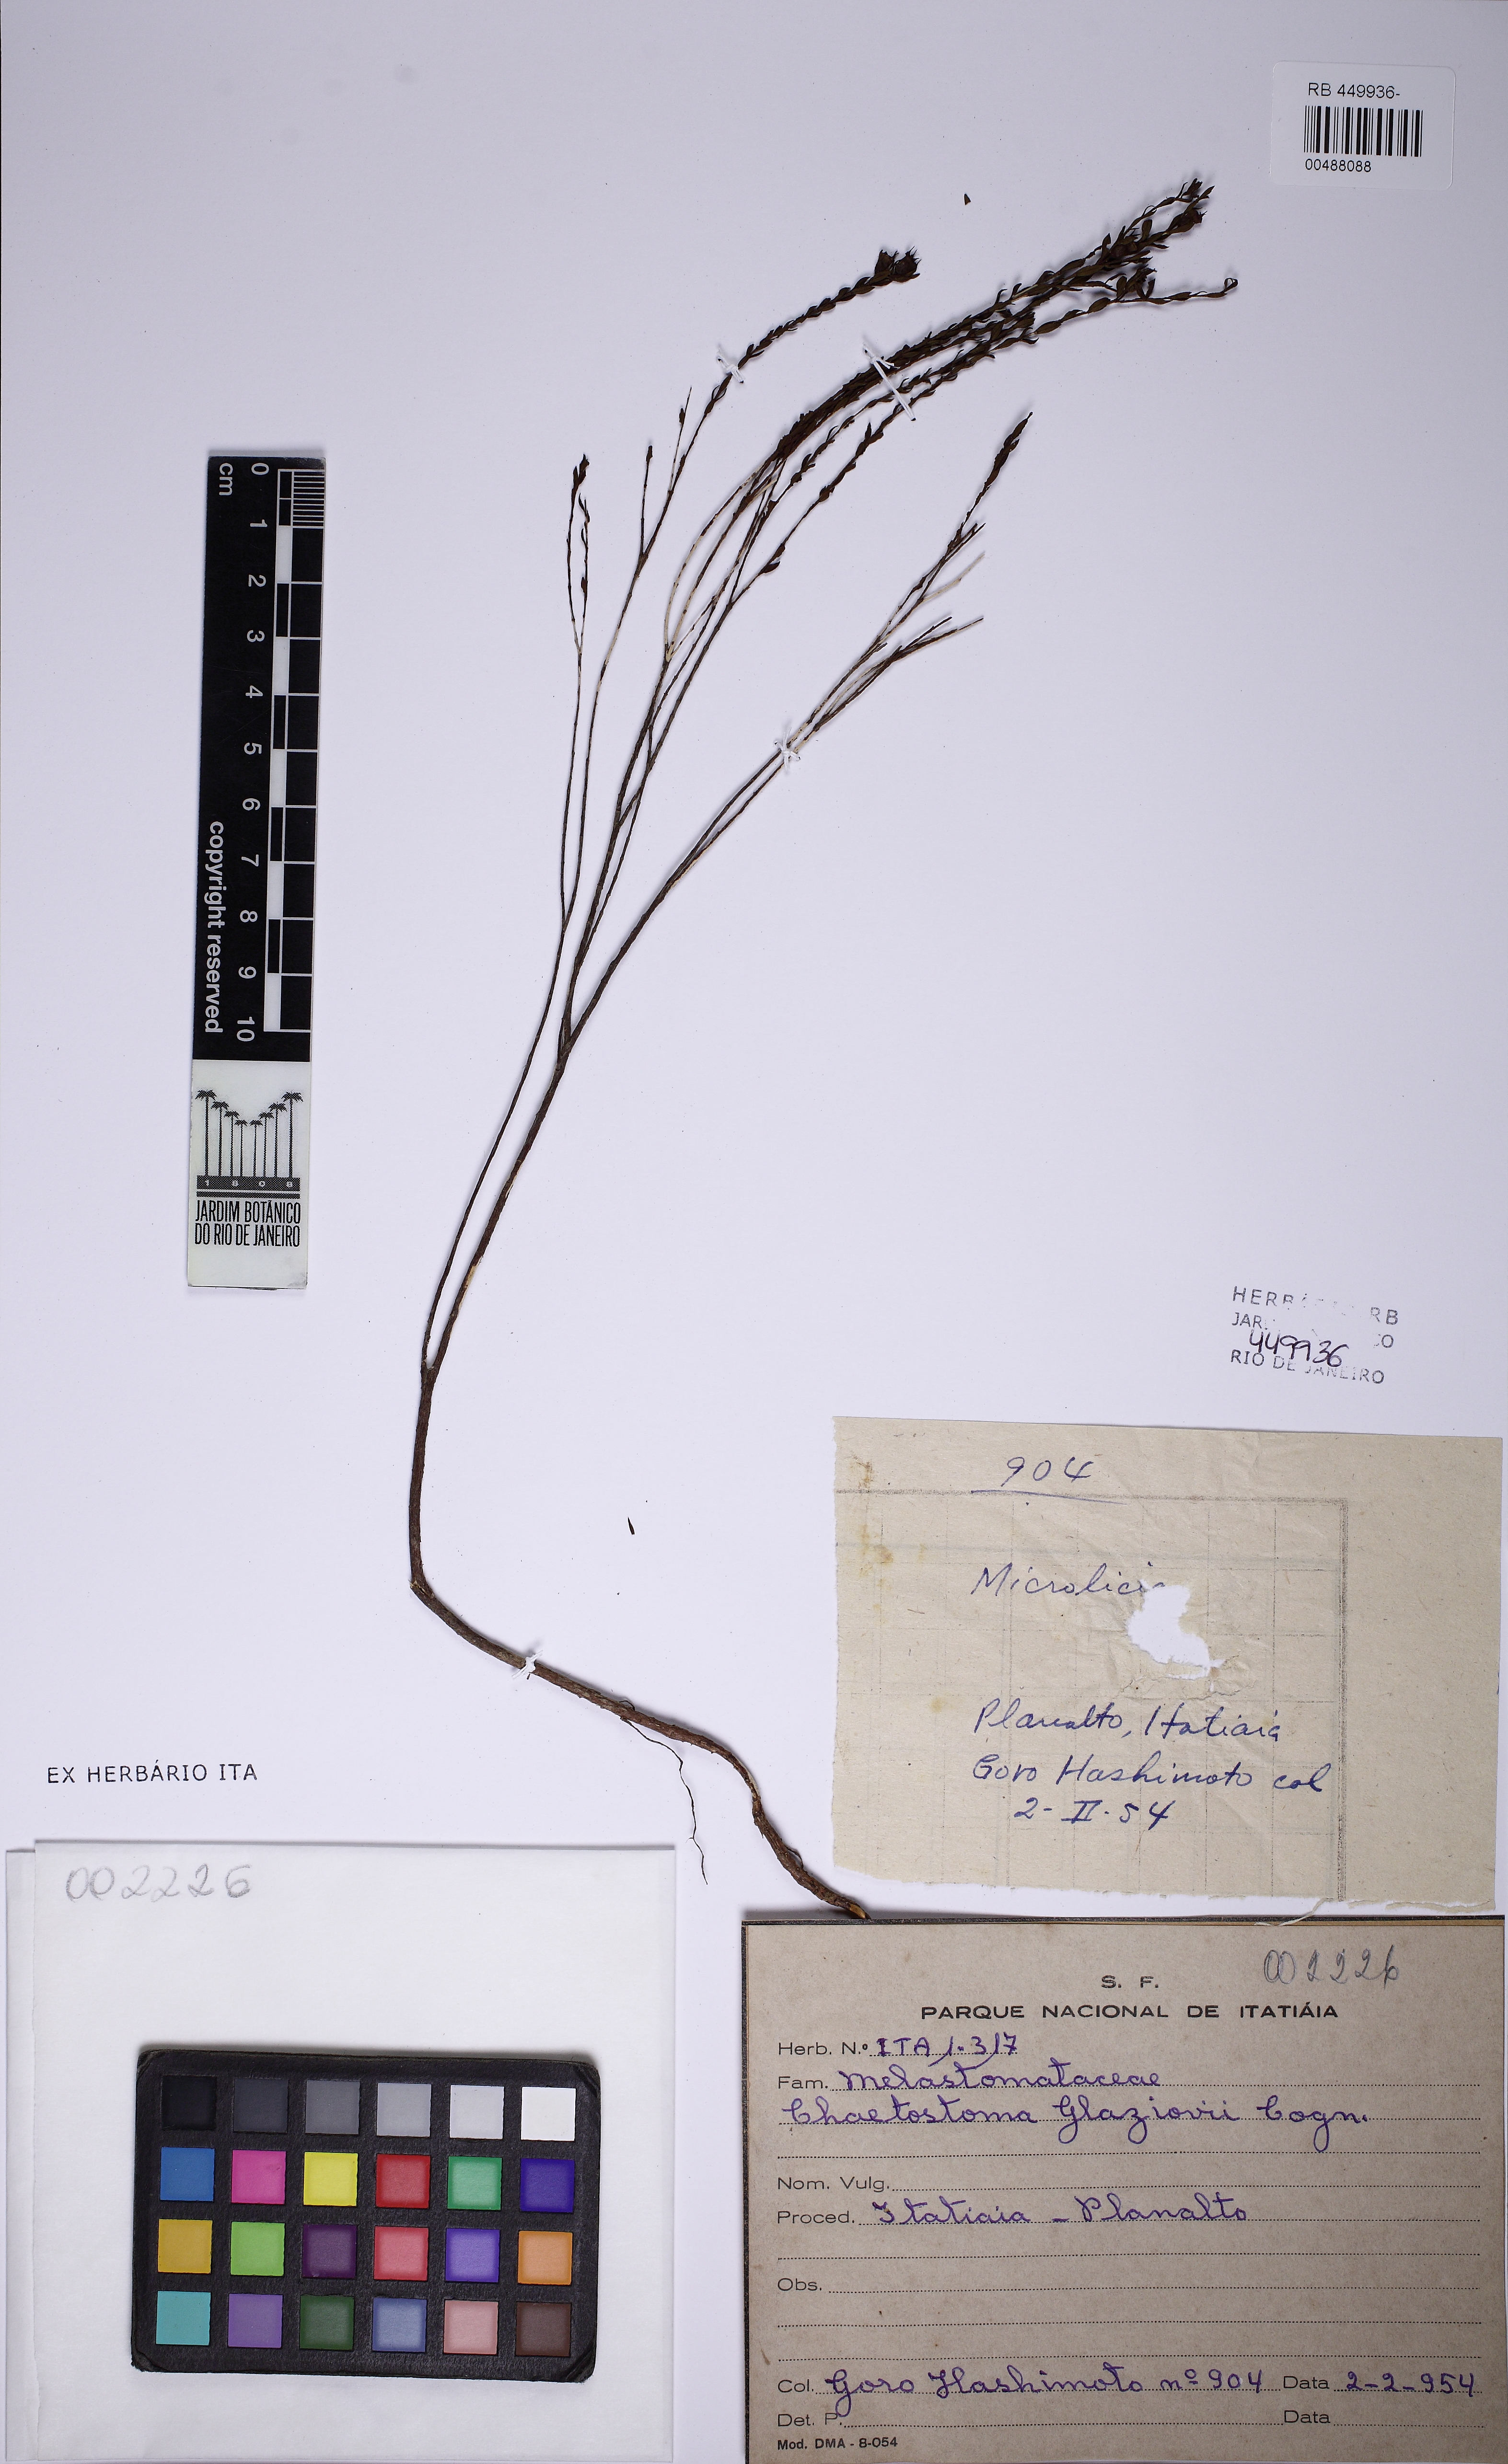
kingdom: Plantae
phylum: Tracheophyta
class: Magnoliopsida
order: Myrtales
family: Melastomataceae
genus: Microlicia
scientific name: Microlicia isophylla
